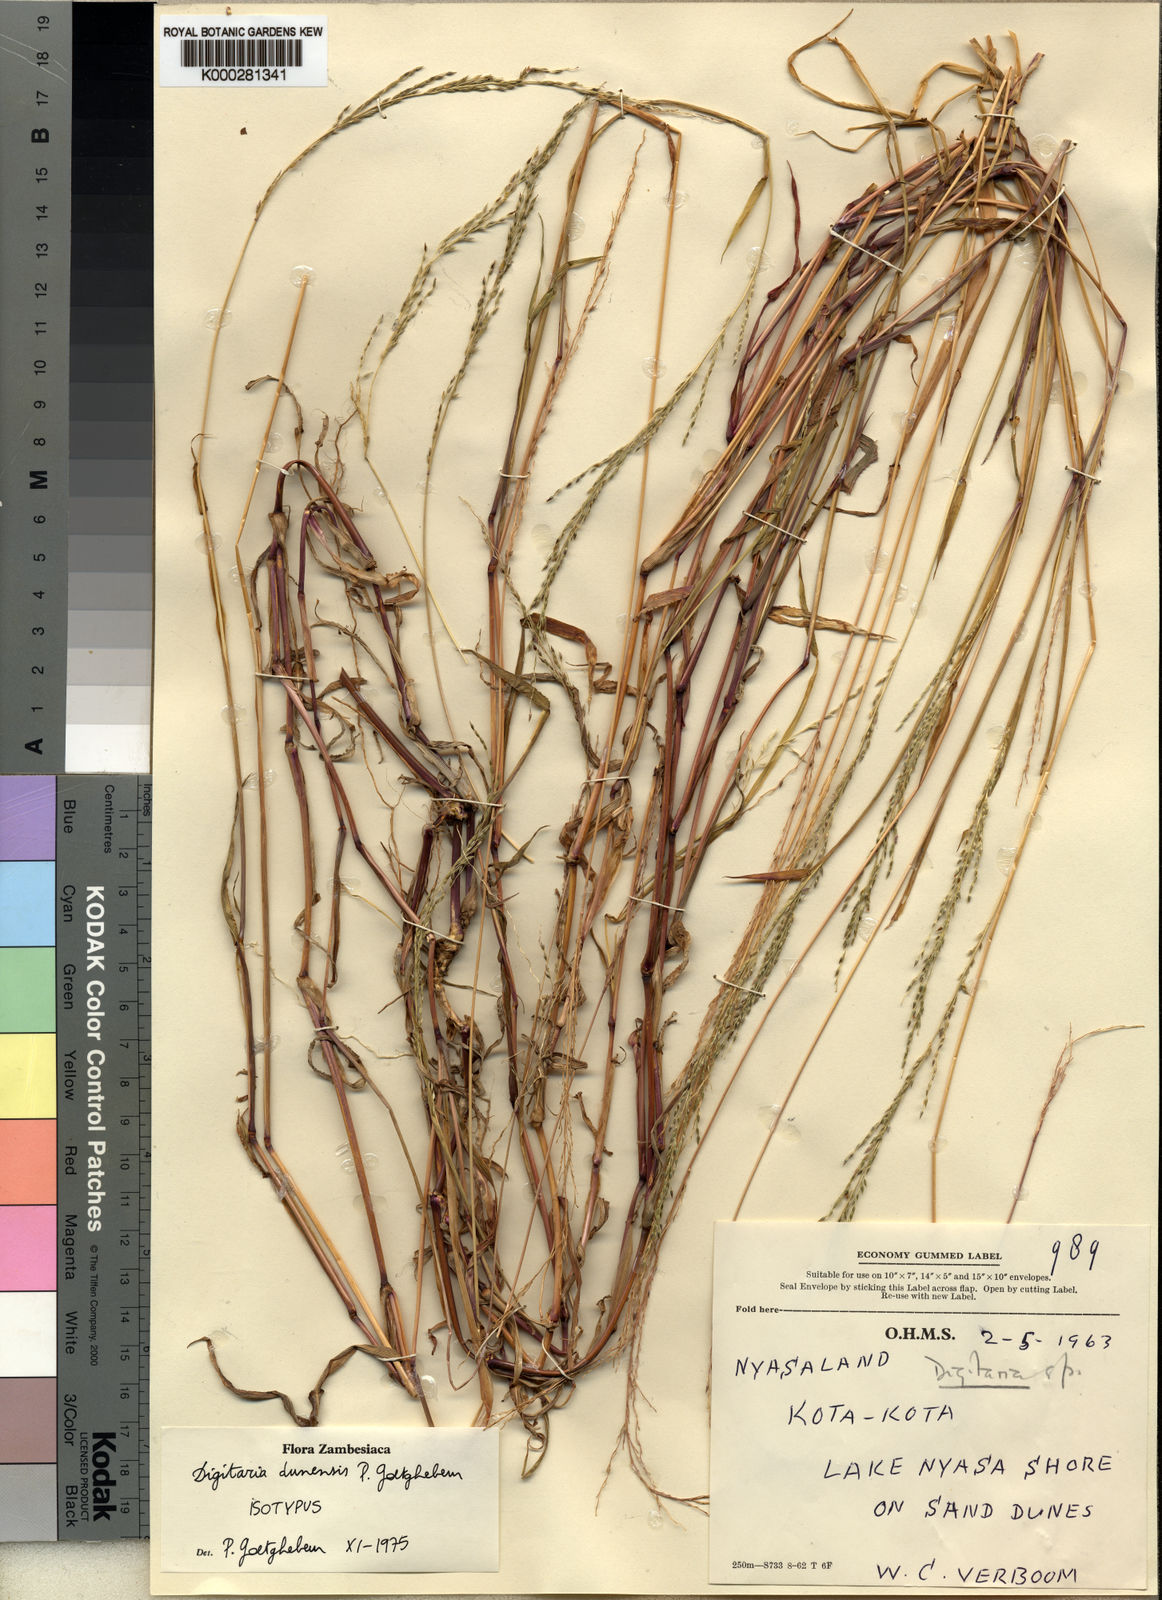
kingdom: Plantae
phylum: Tracheophyta
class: Liliopsida
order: Poales
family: Poaceae
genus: Digitaria
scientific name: Digitaria dunensis
